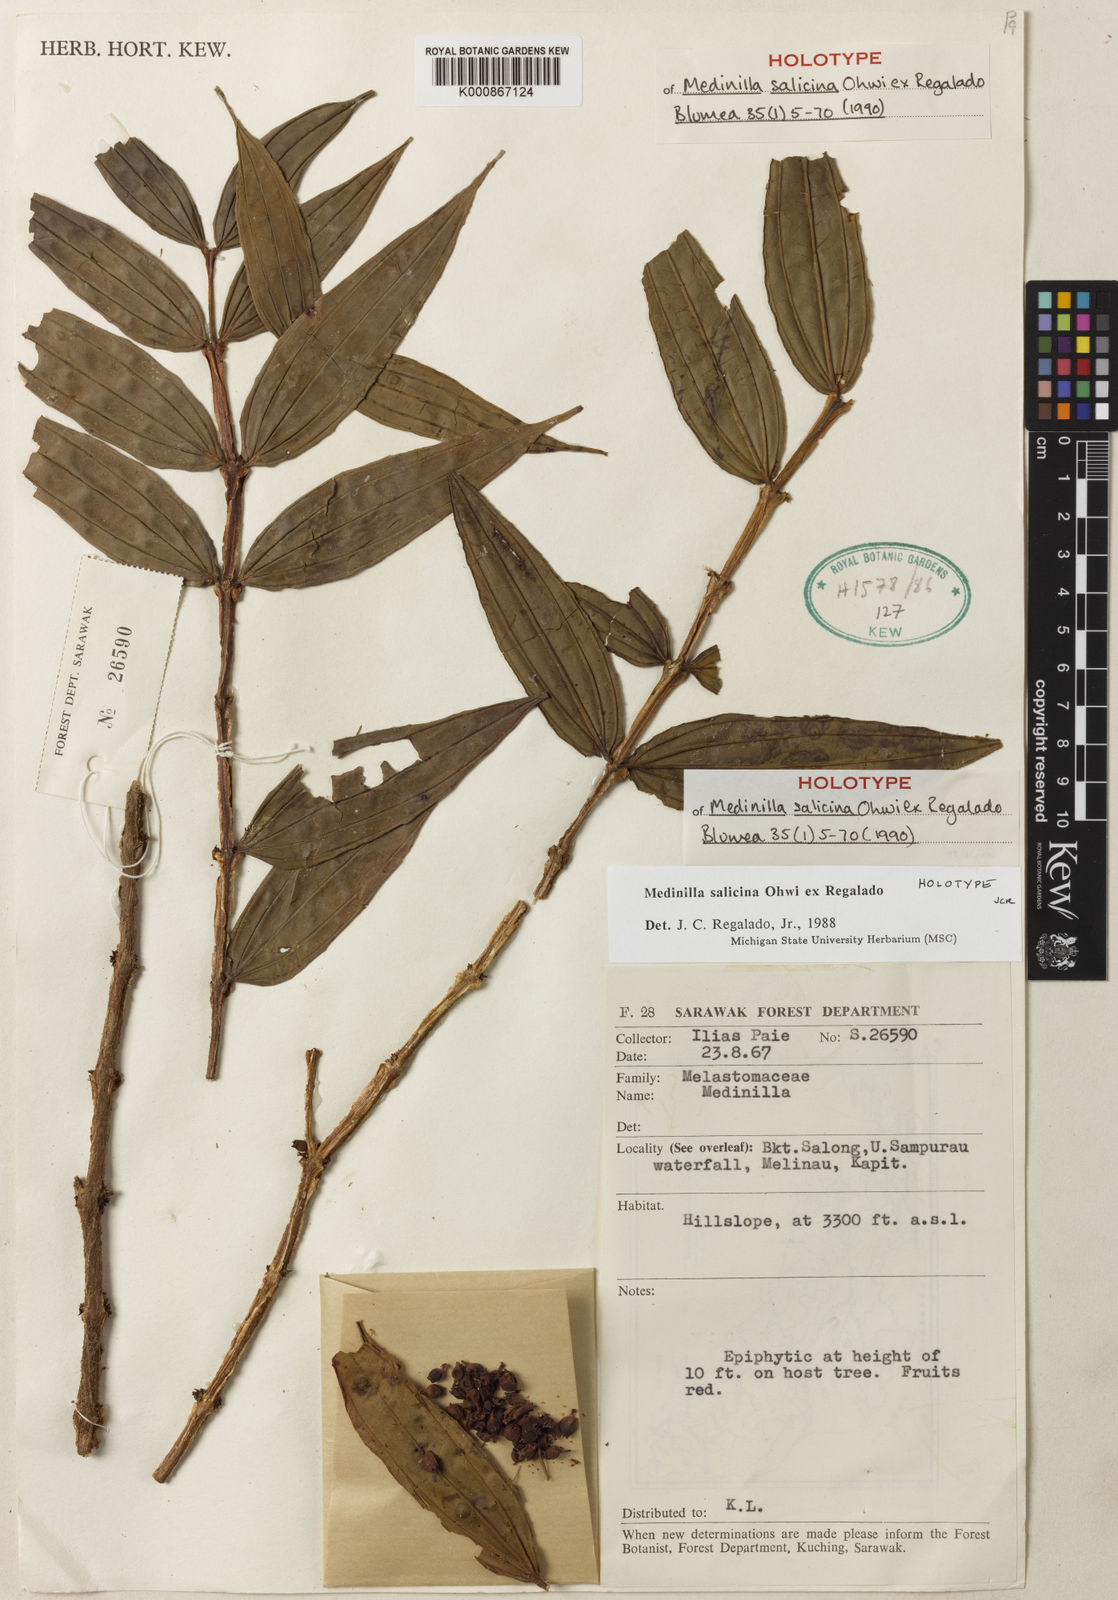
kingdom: Plantae
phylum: Tracheophyta
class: Magnoliopsida
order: Myrtales
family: Melastomataceae
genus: Medinilla
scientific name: Medinilla salicina
